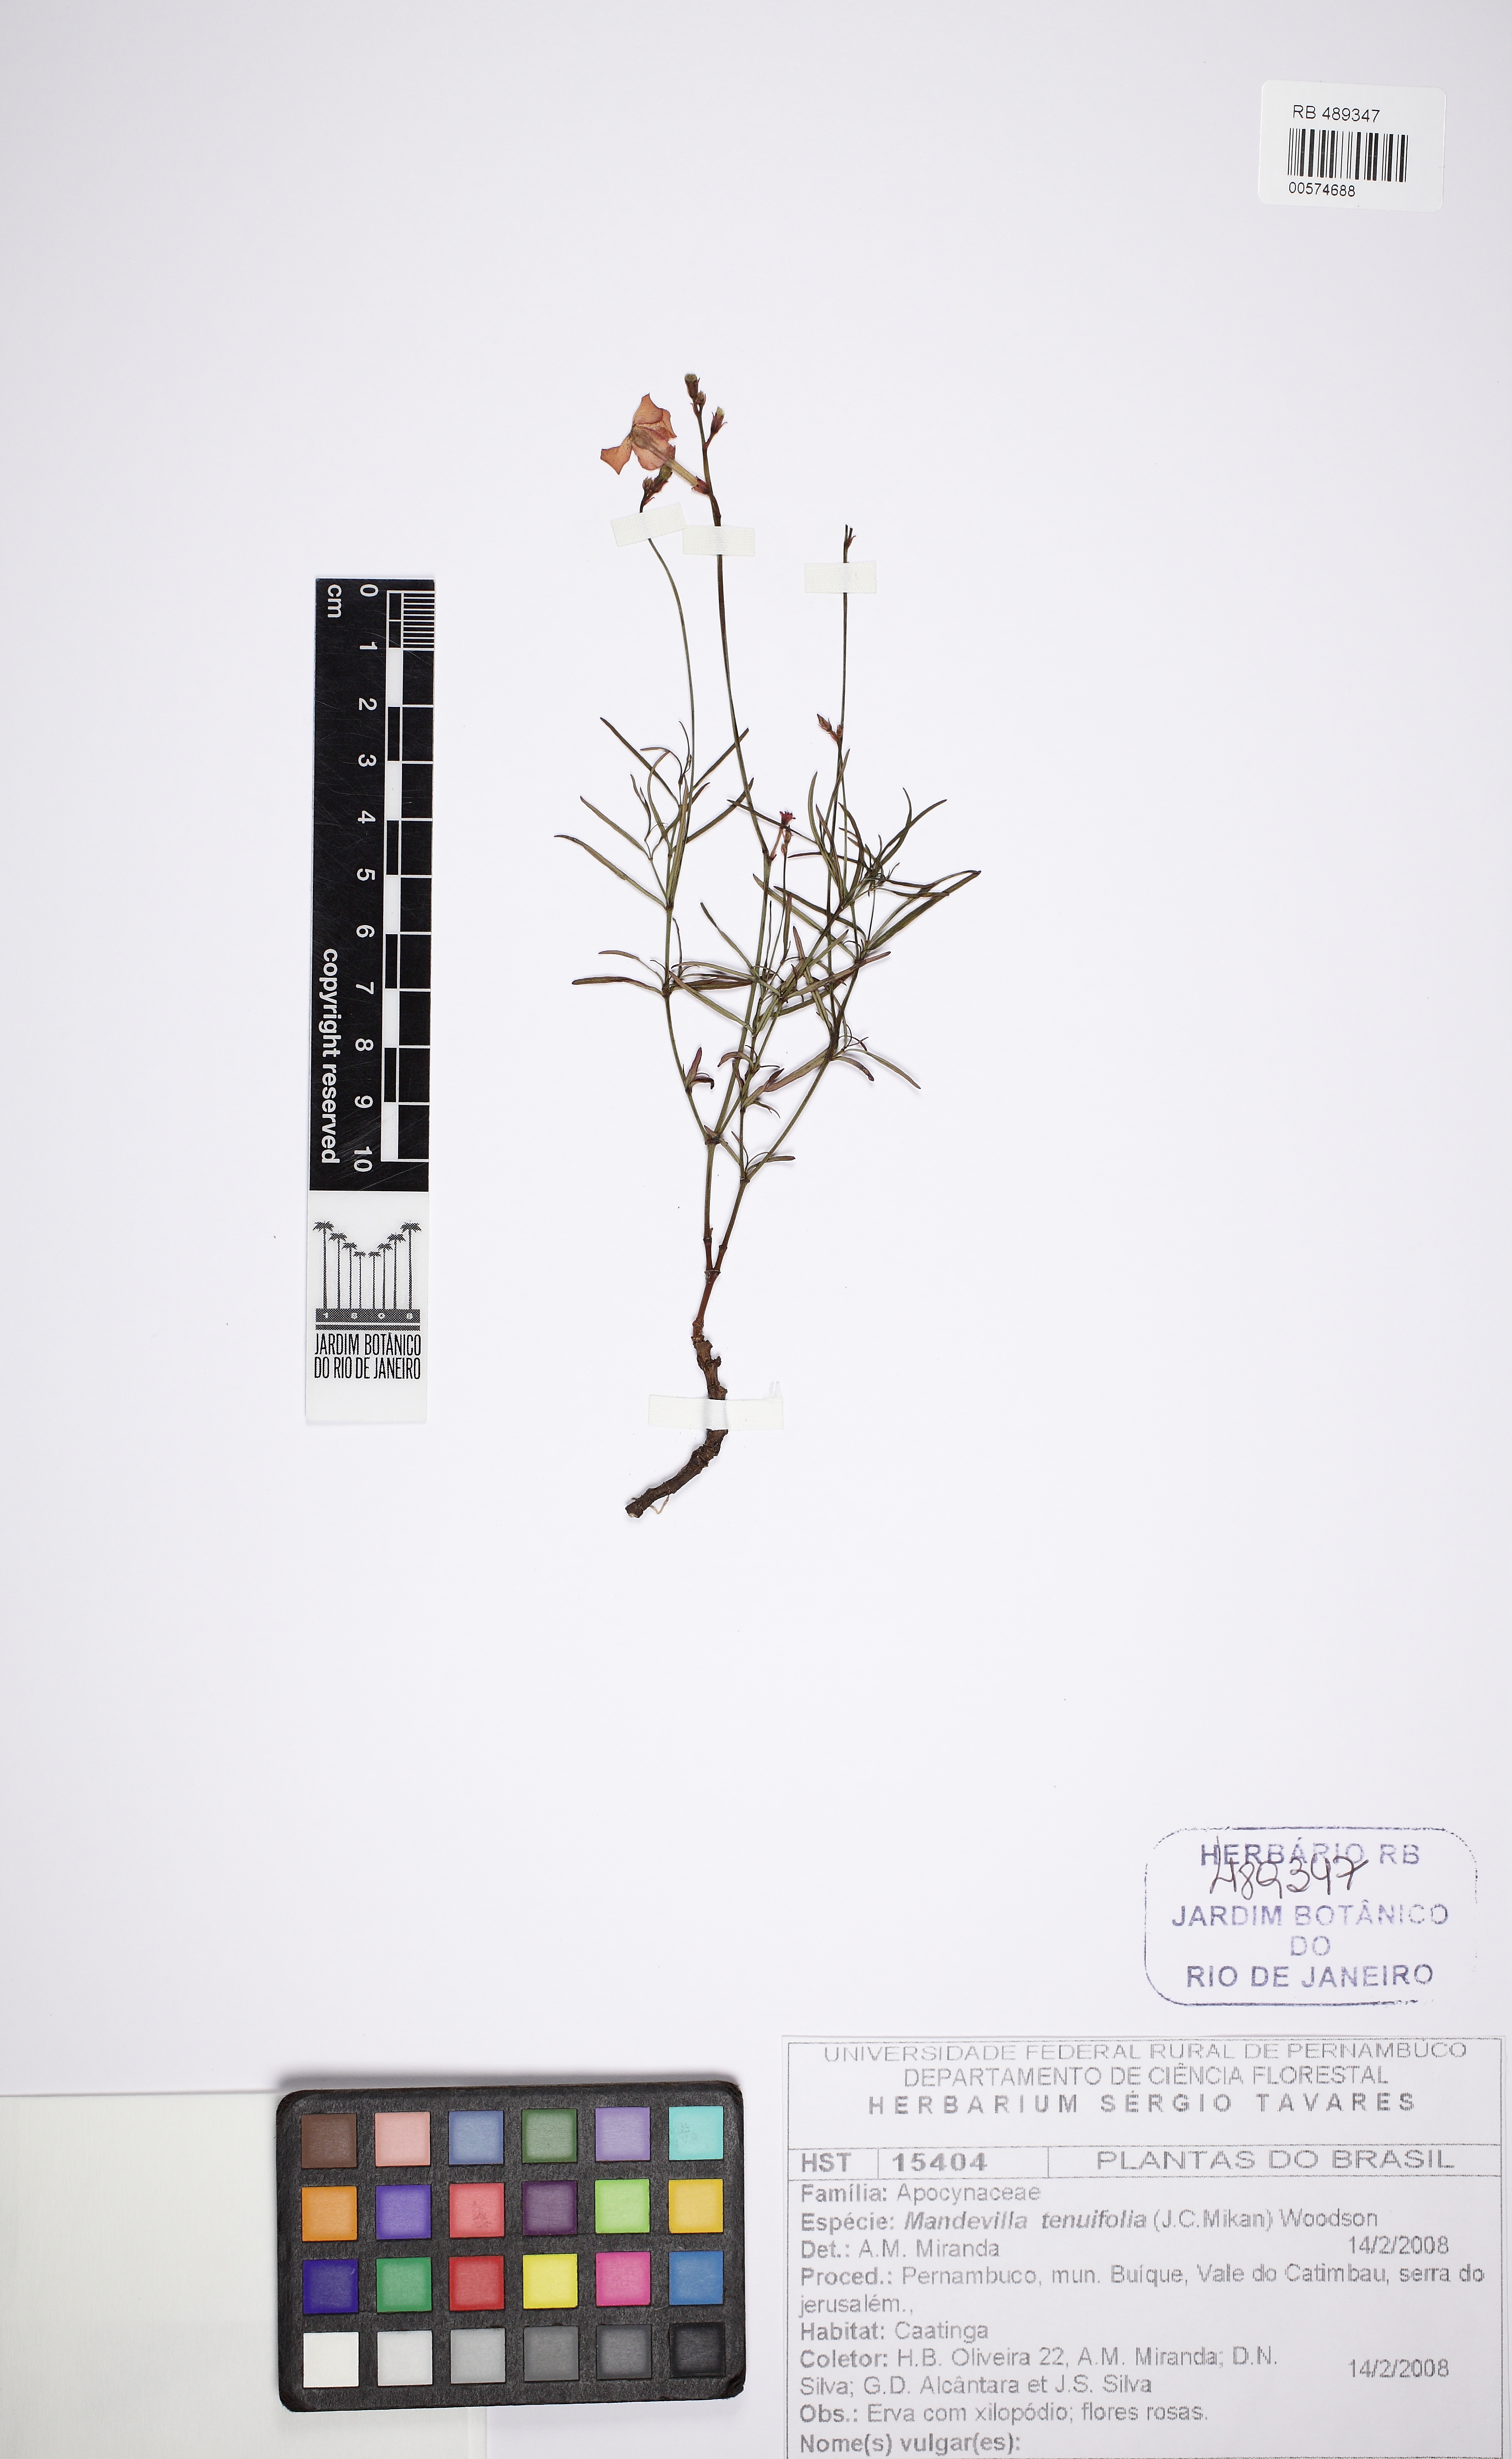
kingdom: Plantae
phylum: Tracheophyta
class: Magnoliopsida
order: Gentianales
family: Apocynaceae
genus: Mandevilla
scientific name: Mandevilla tenuifolia
